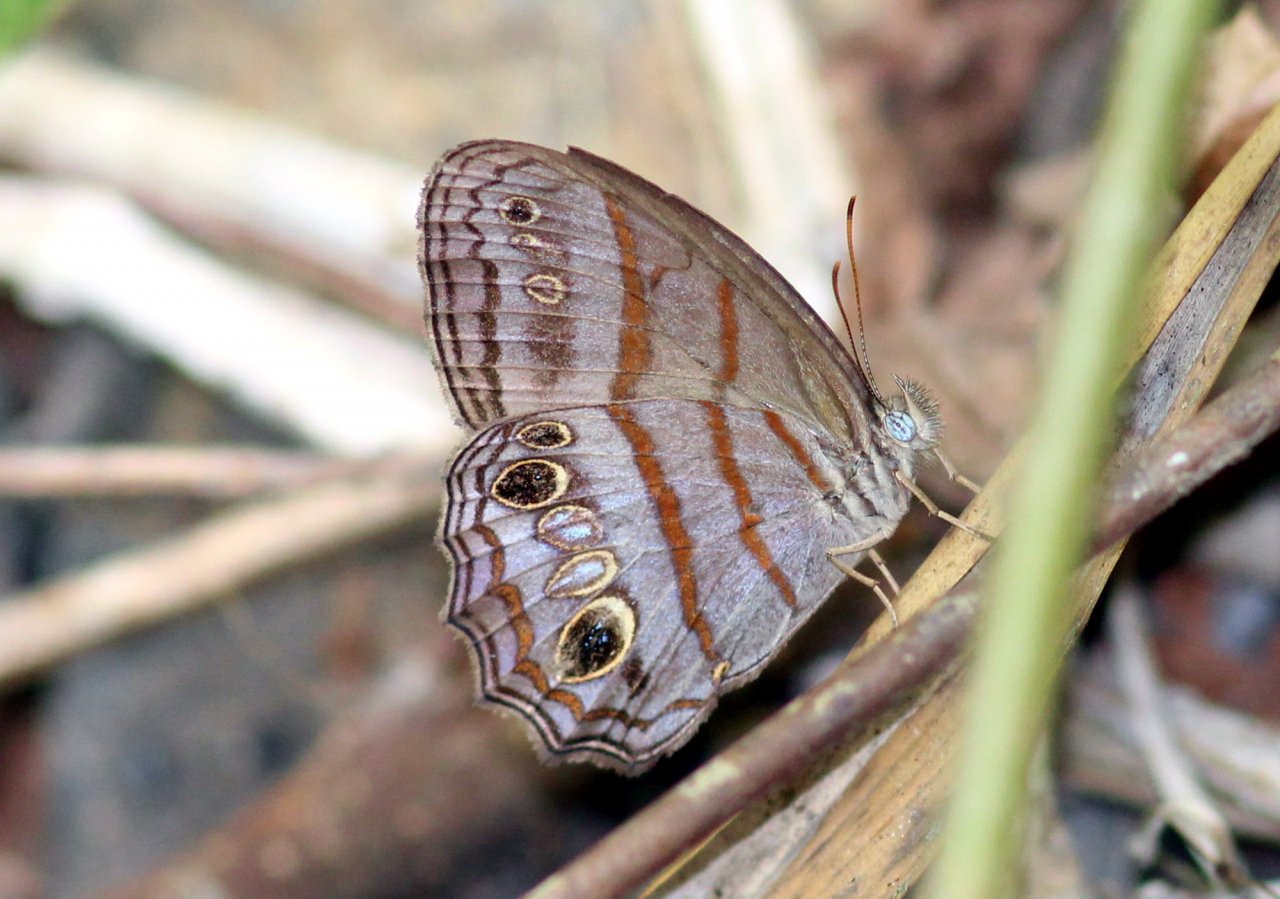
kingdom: Animalia
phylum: Arthropoda
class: Insecta
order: Lepidoptera
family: Nymphalidae
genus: Magneuptychia
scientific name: Magneuptychia libye
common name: Blue-gray Satyr
